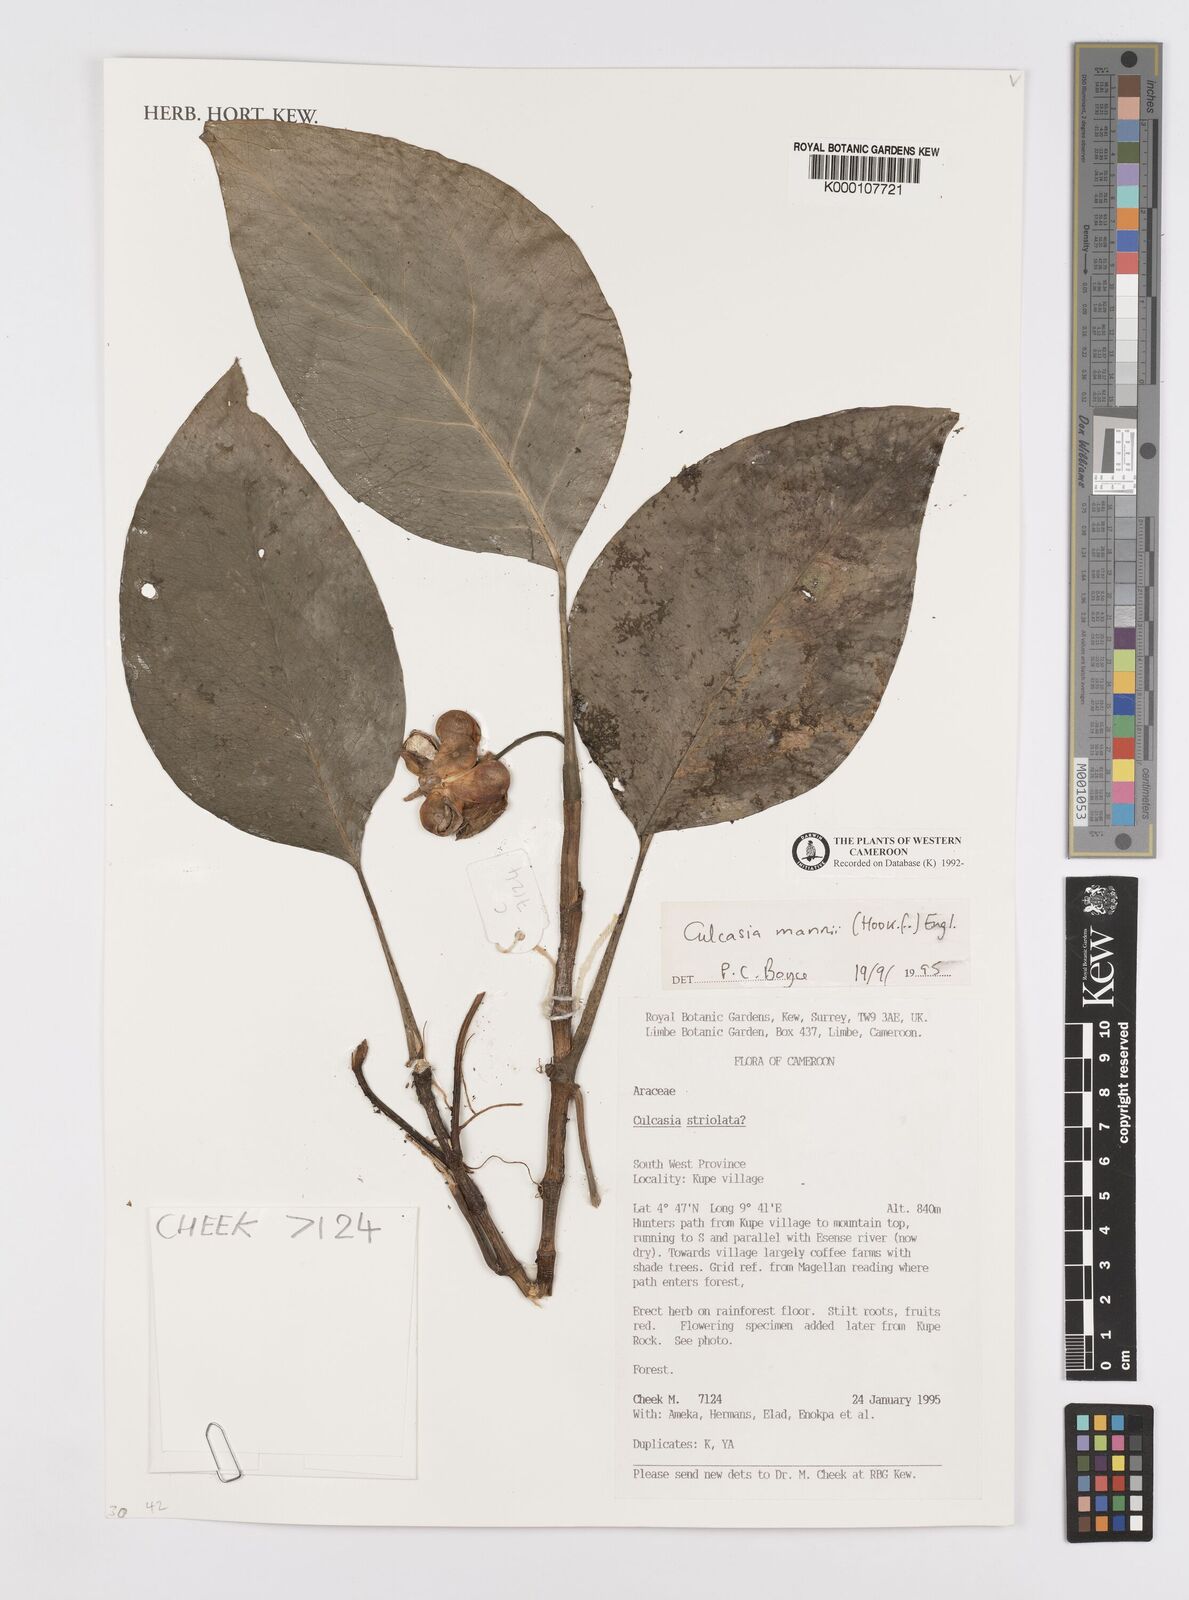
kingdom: Plantae
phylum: Tracheophyta
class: Liliopsida
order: Alismatales
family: Araceae
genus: Culcasia
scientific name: Culcasia mannii
